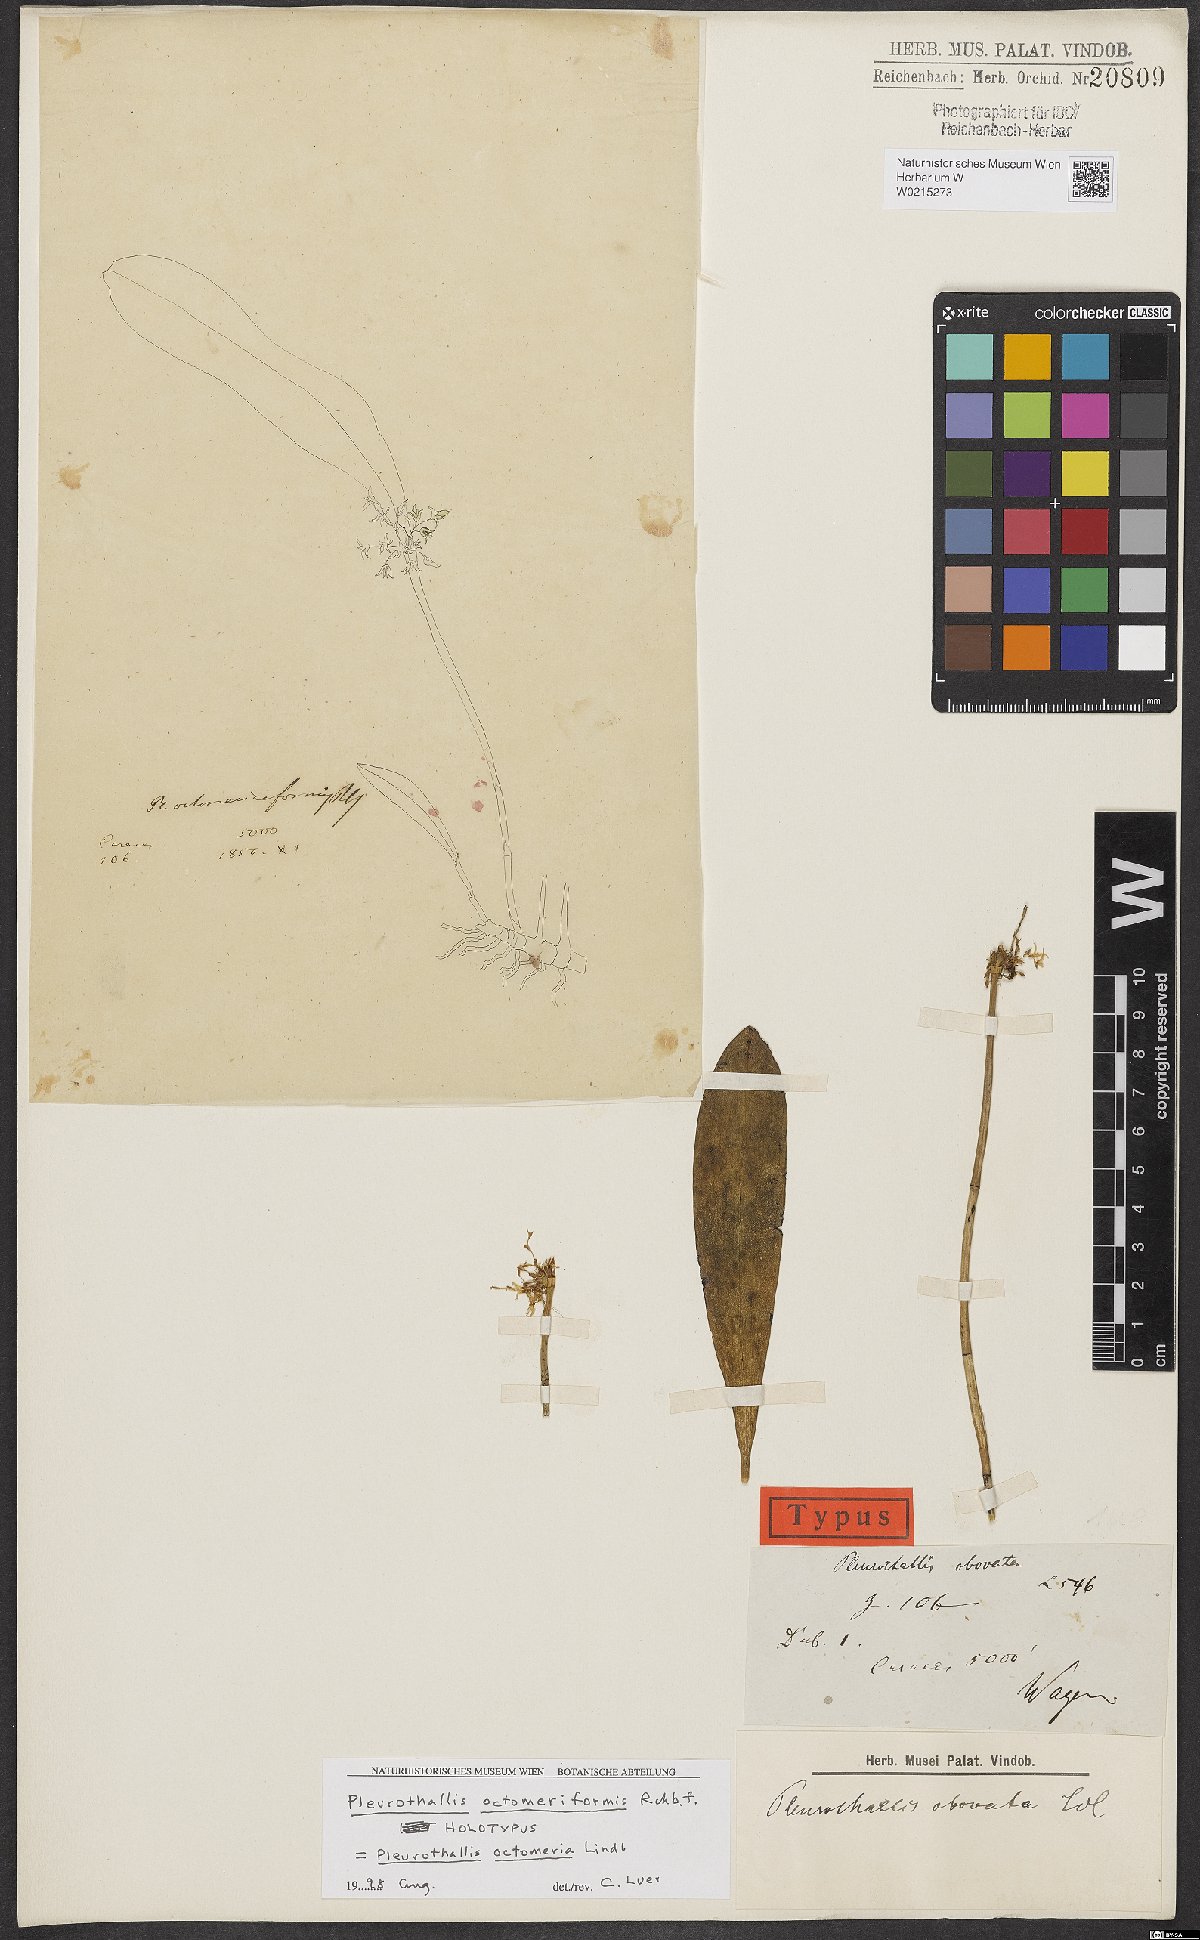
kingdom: Plantae
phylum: Tracheophyta
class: Liliopsida
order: Asparagales
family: Orchidaceae
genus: Pleurothallis
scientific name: Pleurothallis
